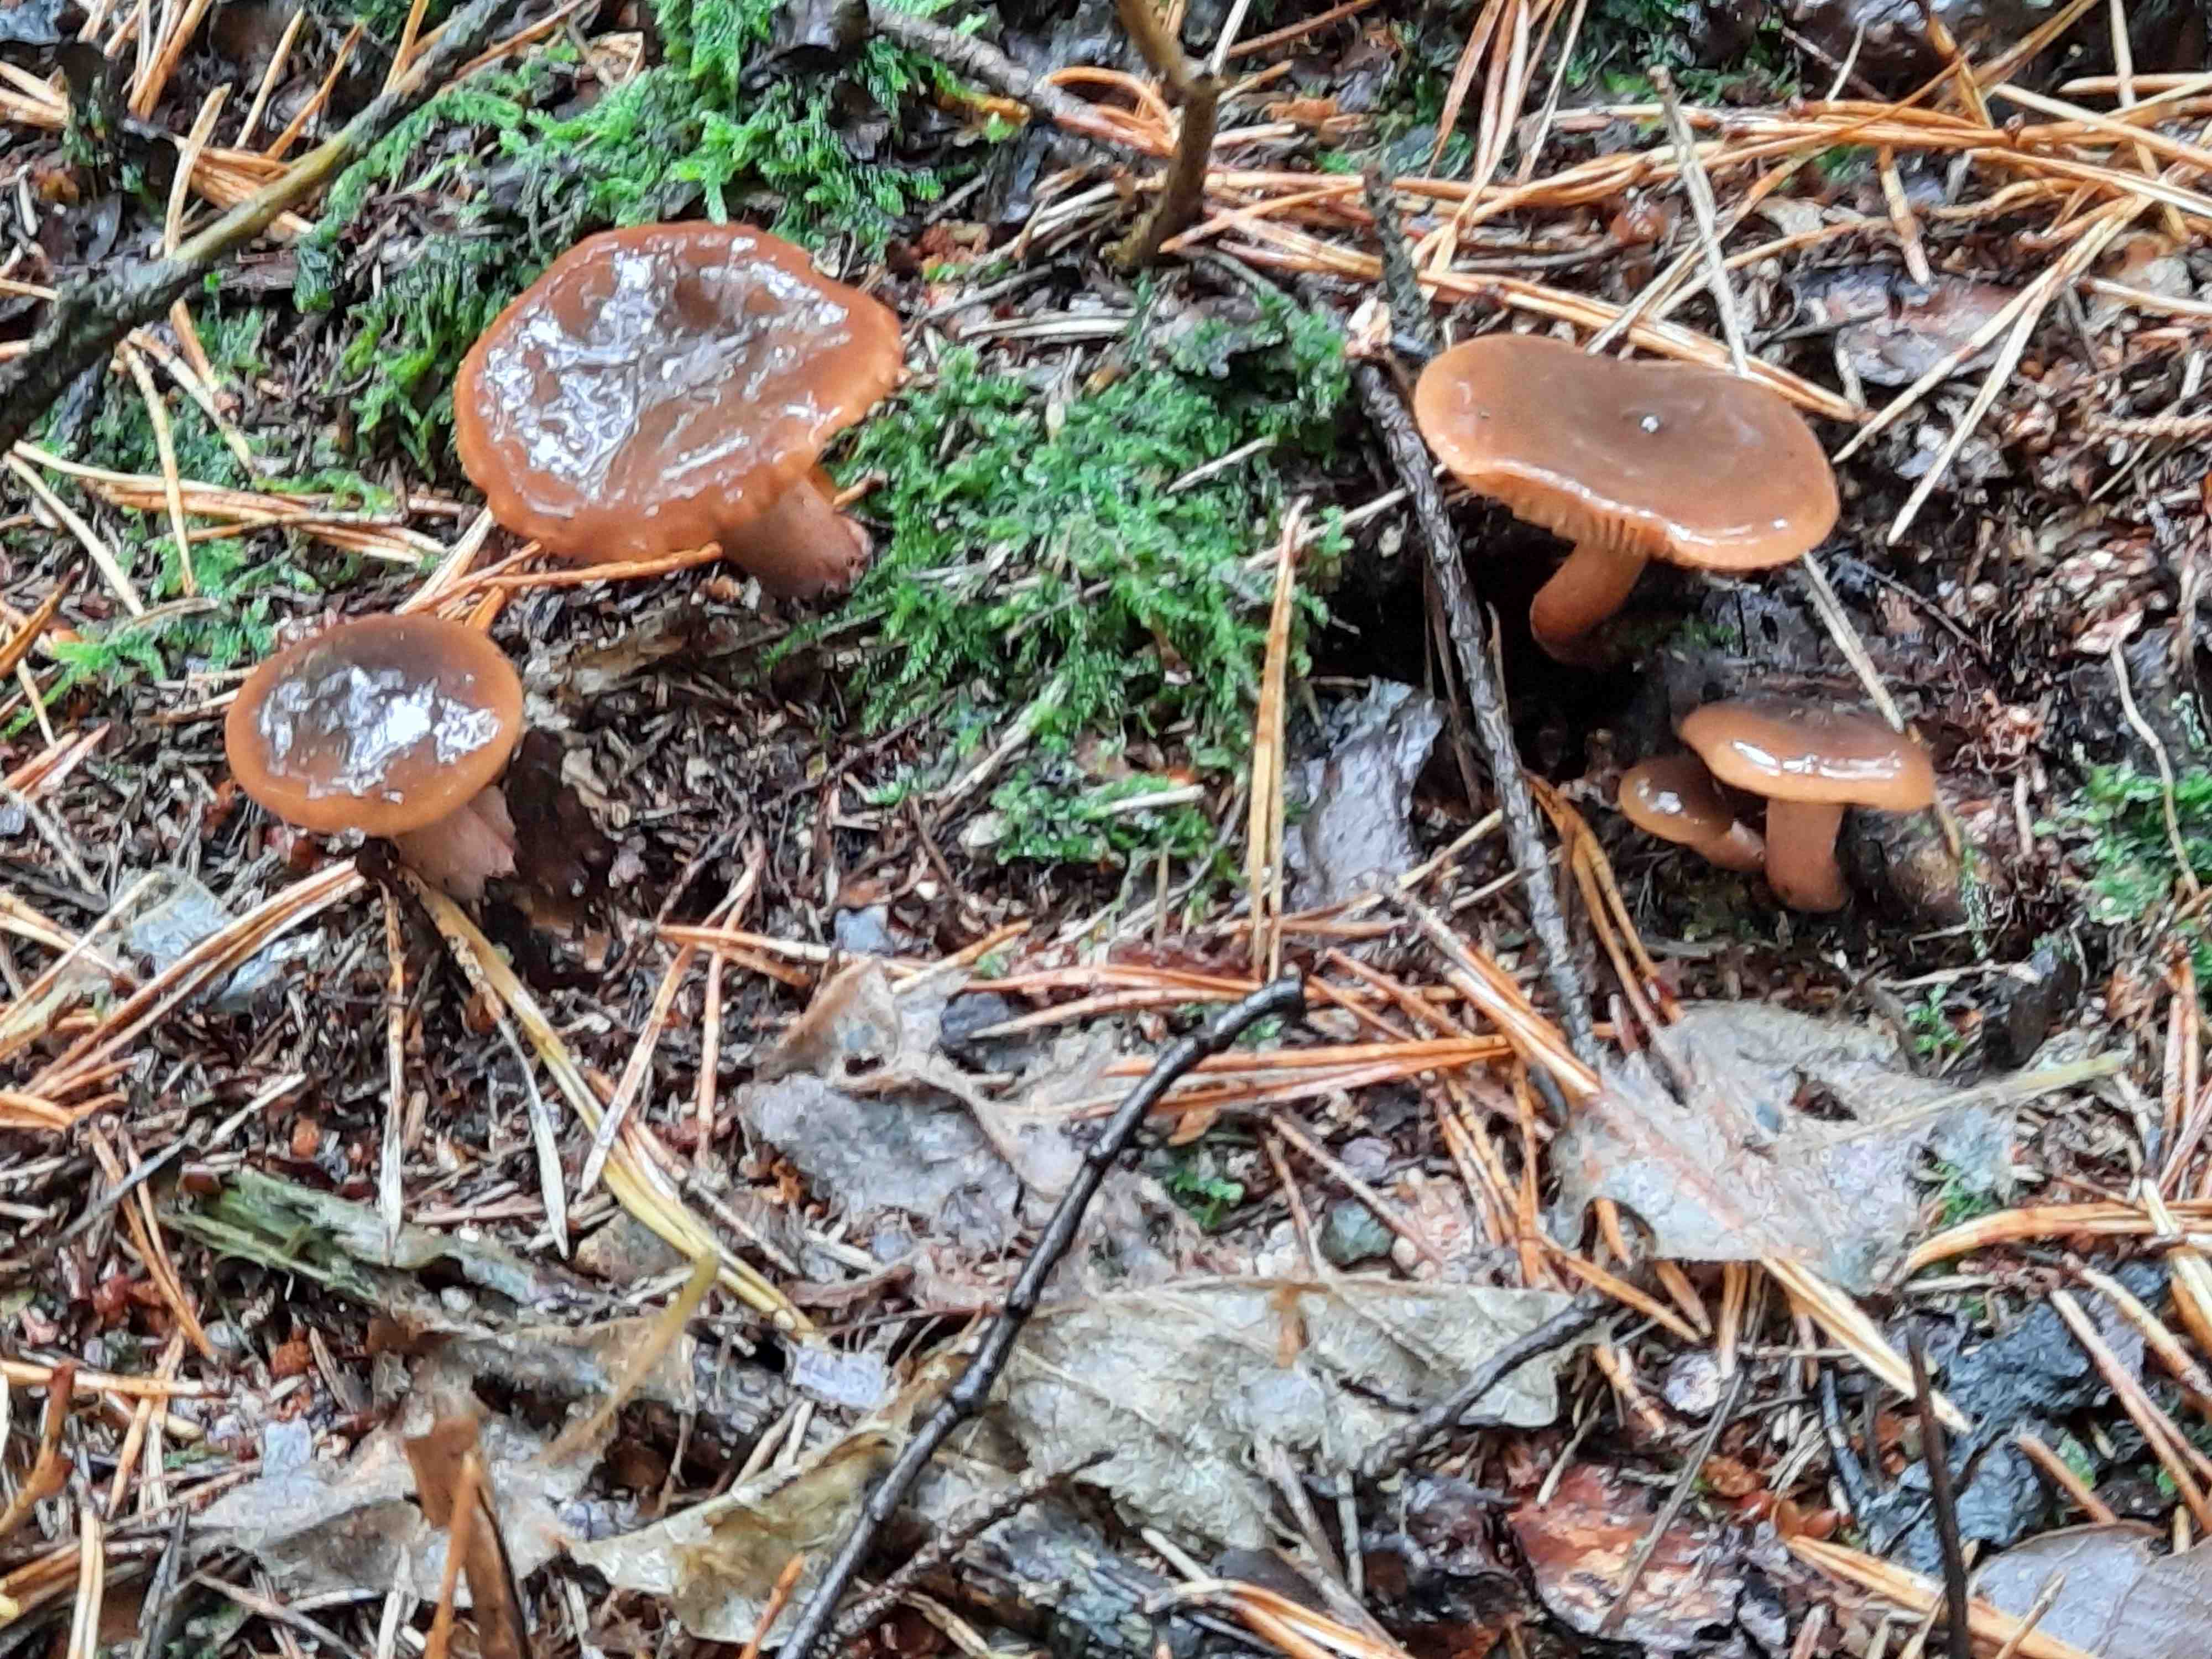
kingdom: Fungi
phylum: Basidiomycota
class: Agaricomycetes
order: Russulales
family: Russulaceae
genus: Lactarius
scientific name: Lactarius hepaticus
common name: leverbrun mælkehat
